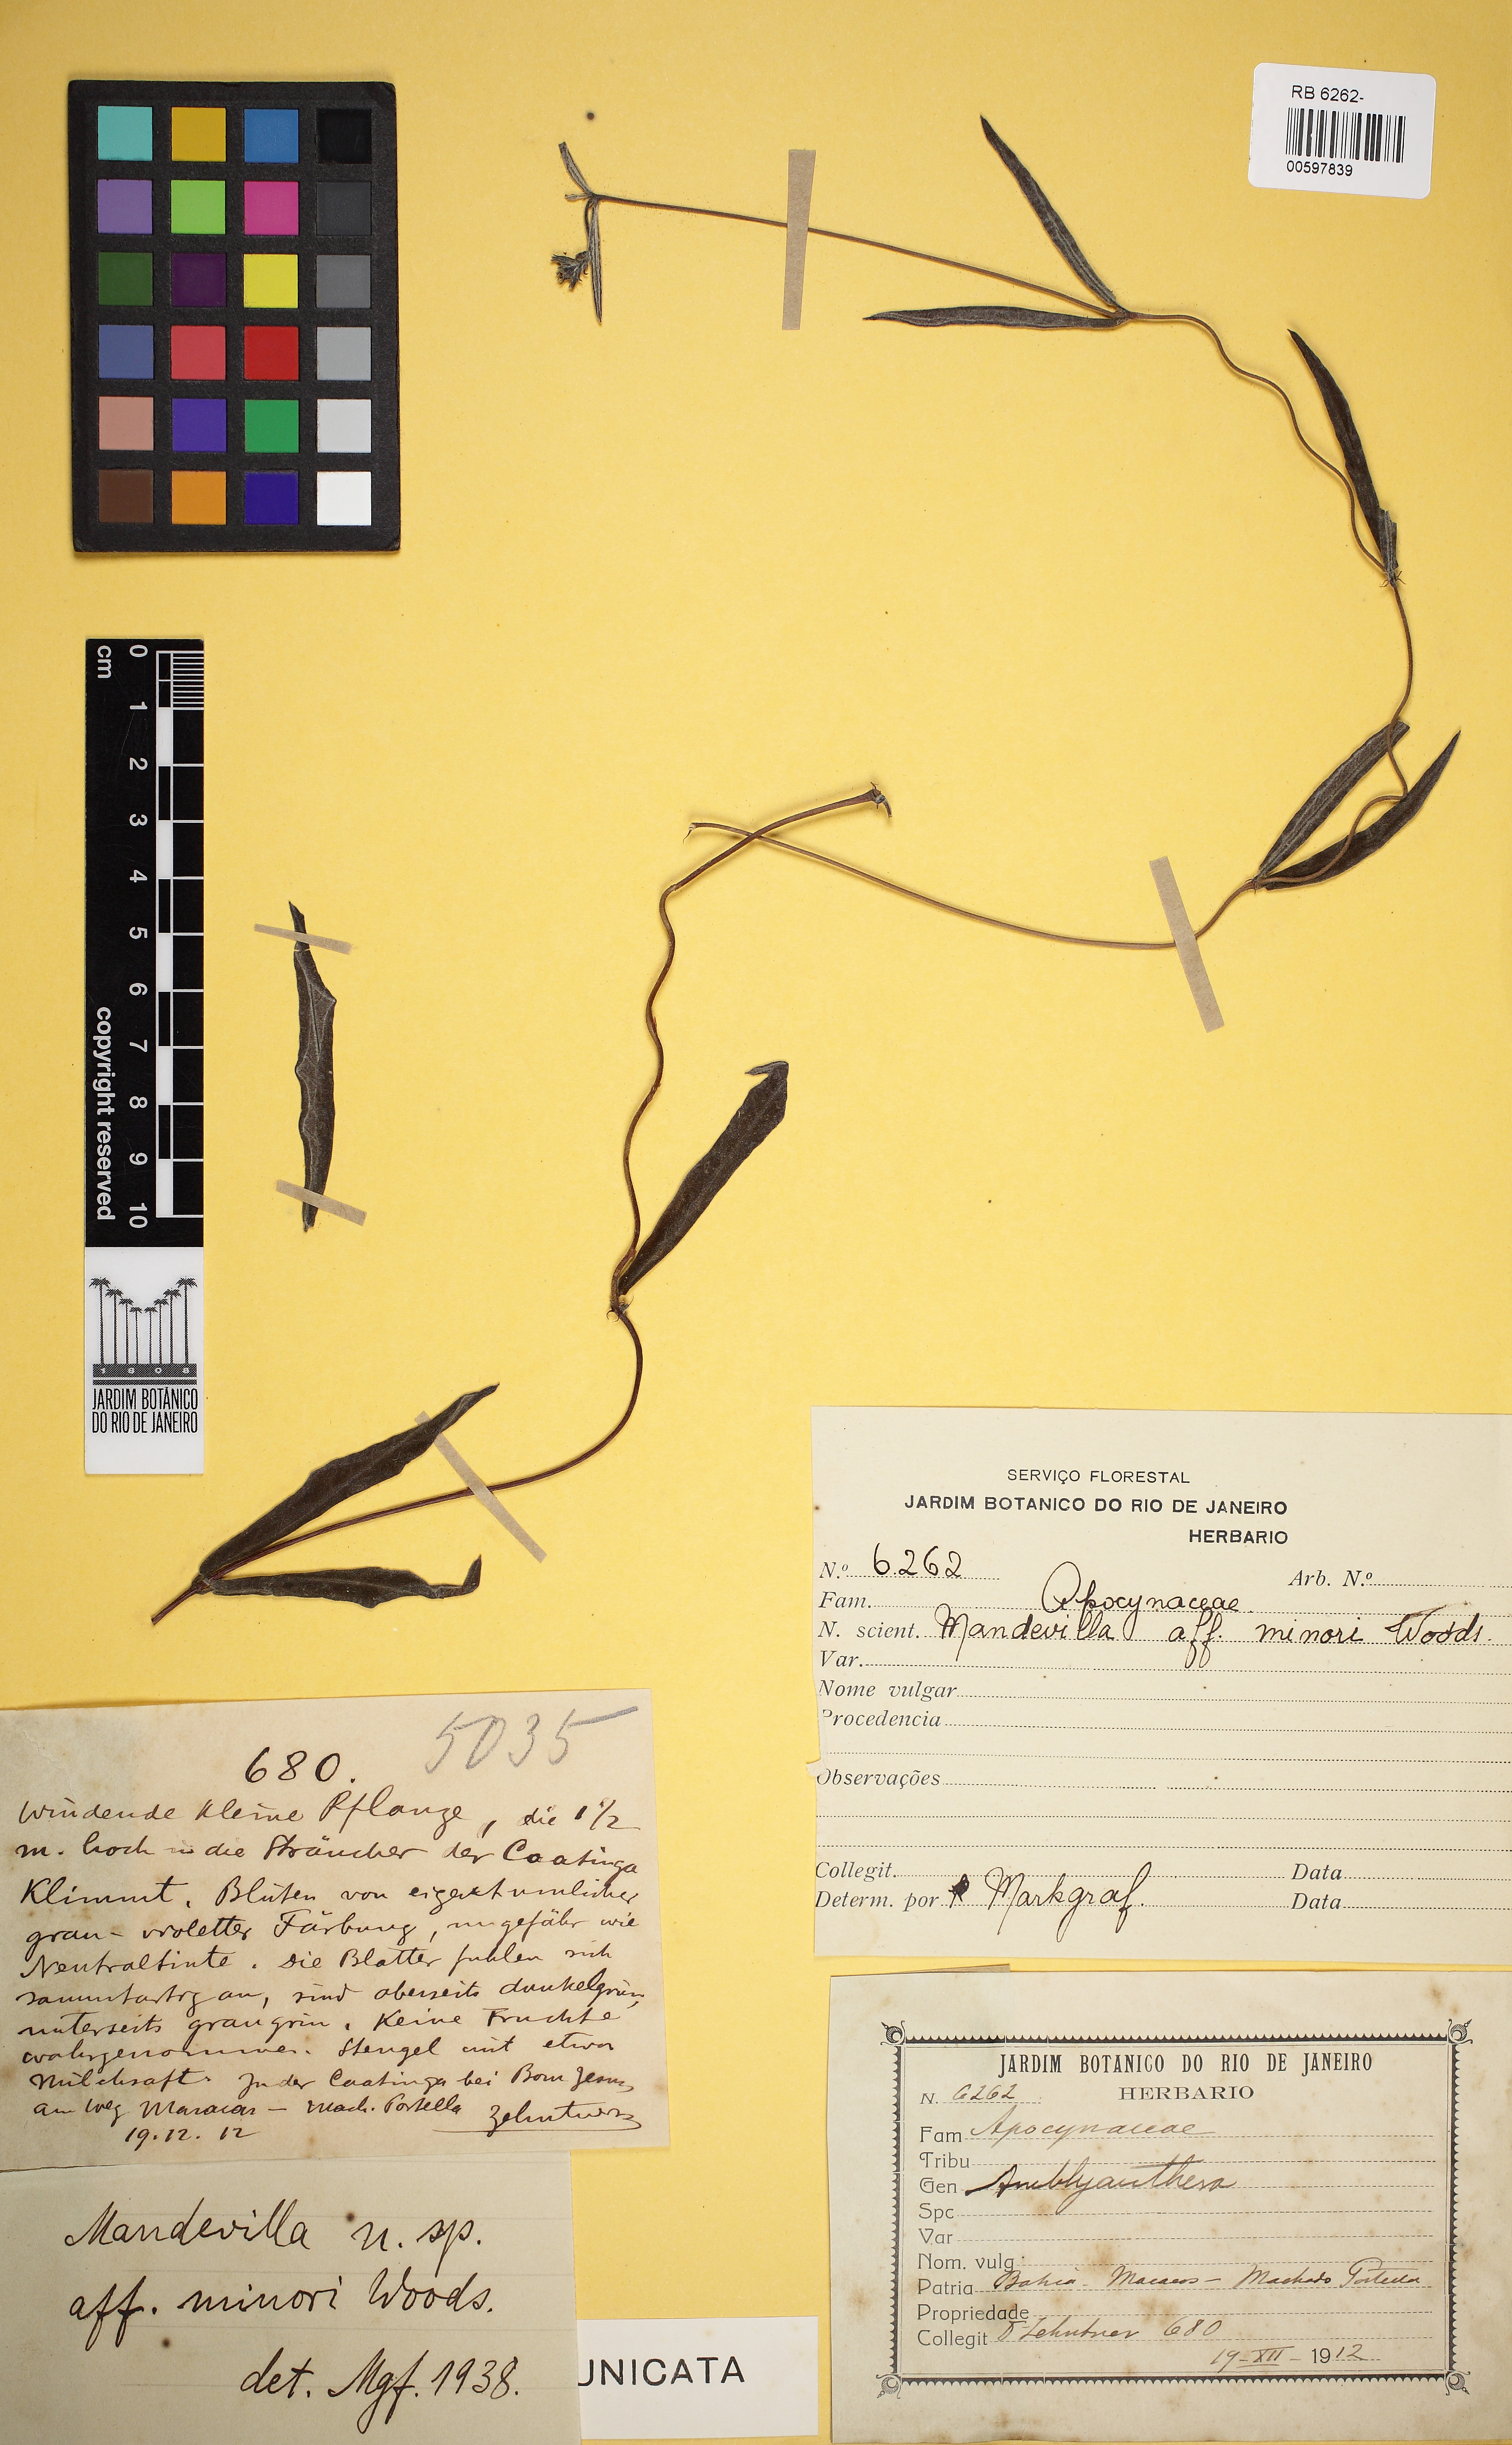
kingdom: Plantae
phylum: Tracheophyta
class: Magnoliopsida
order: Gentianales
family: Apocynaceae
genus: Mandevilla
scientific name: Mandevilla angustifolia
